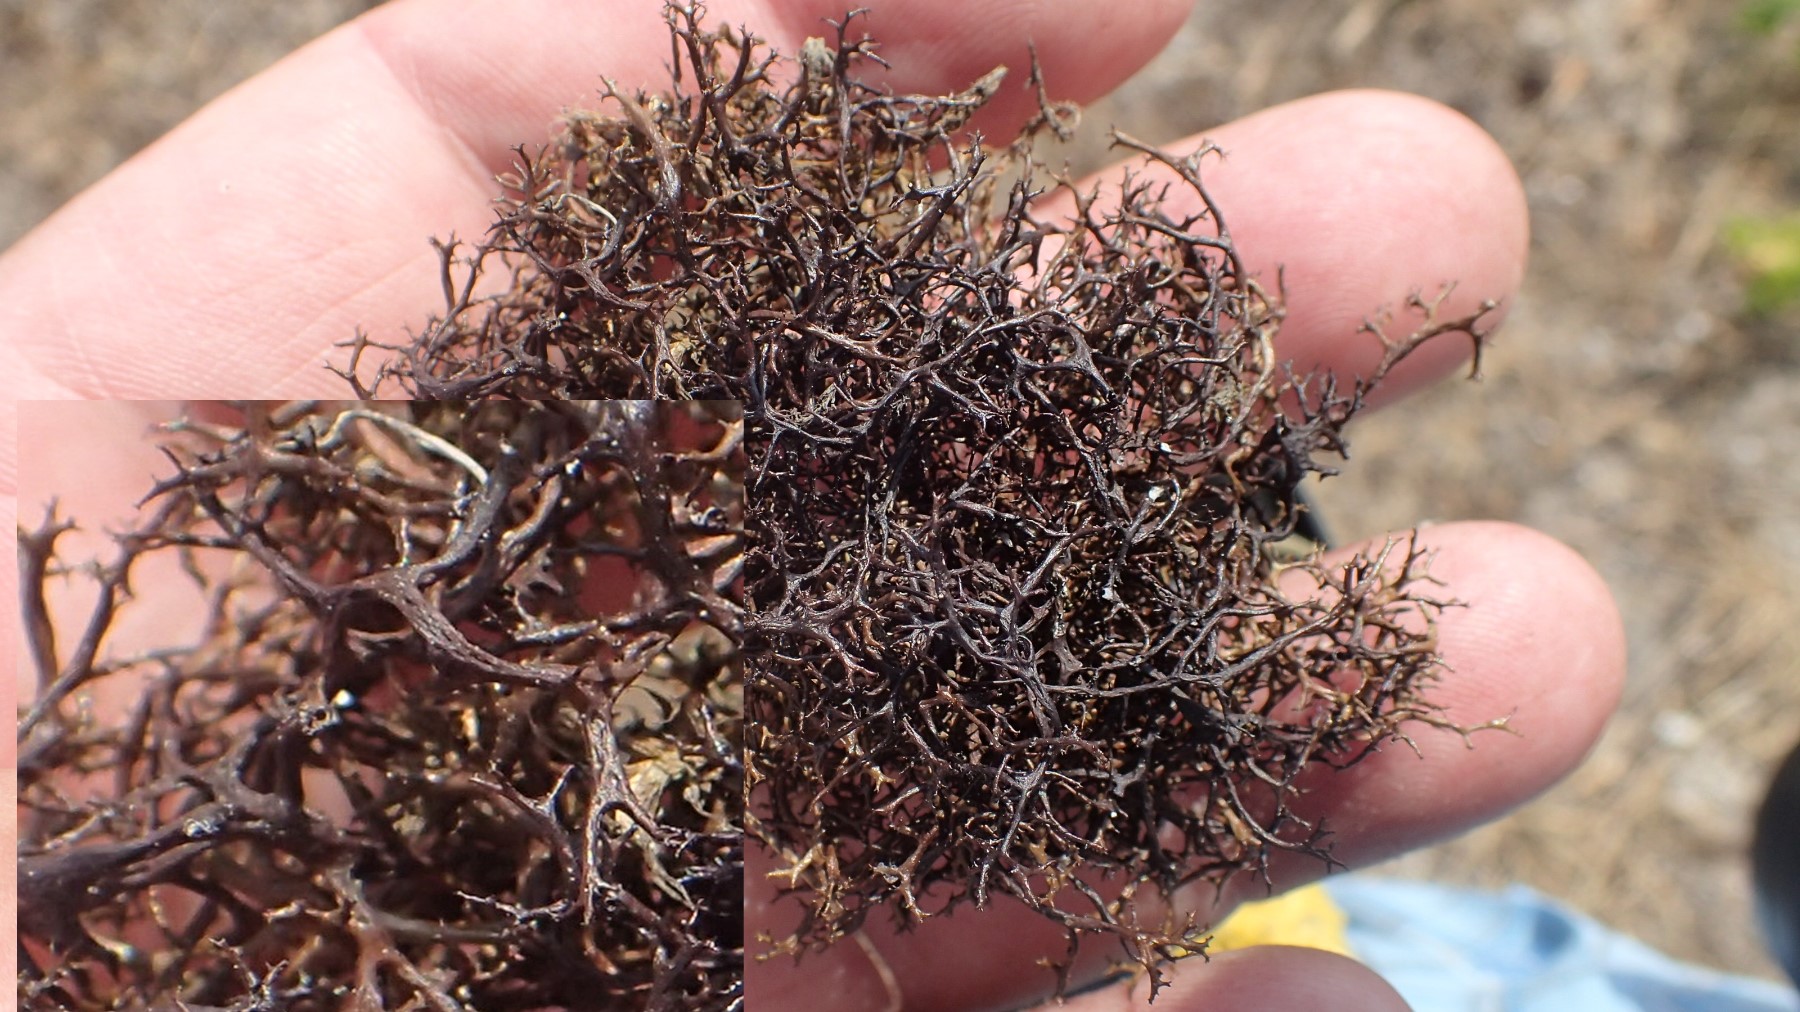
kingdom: Fungi
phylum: Ascomycota
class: Lecanoromycetes
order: Lecanorales
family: Parmeliaceae
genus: Cetraria
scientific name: Cetraria aculeata
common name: grubet tjørnelav
